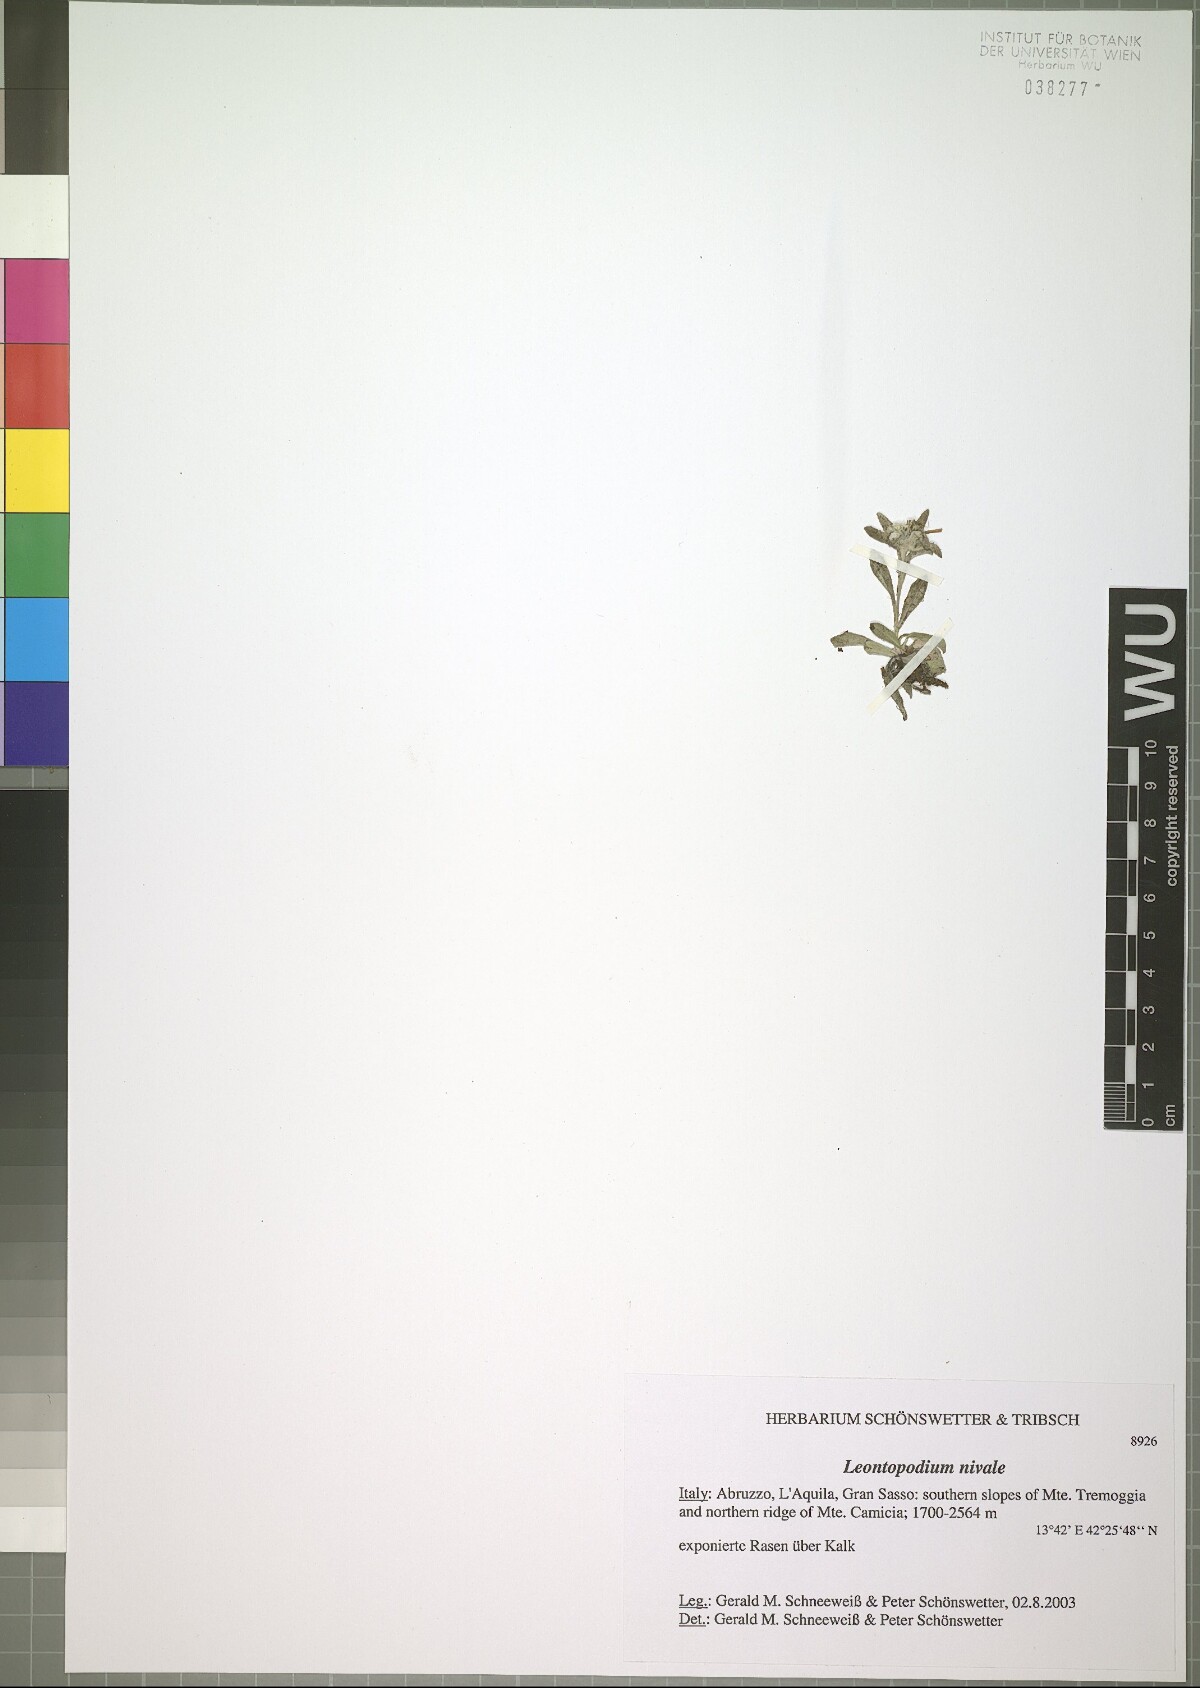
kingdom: Plantae
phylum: Tracheophyta
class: Magnoliopsida
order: Asterales
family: Asteraceae
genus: Leontopodium
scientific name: Leontopodium nivale
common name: Edelweiss
